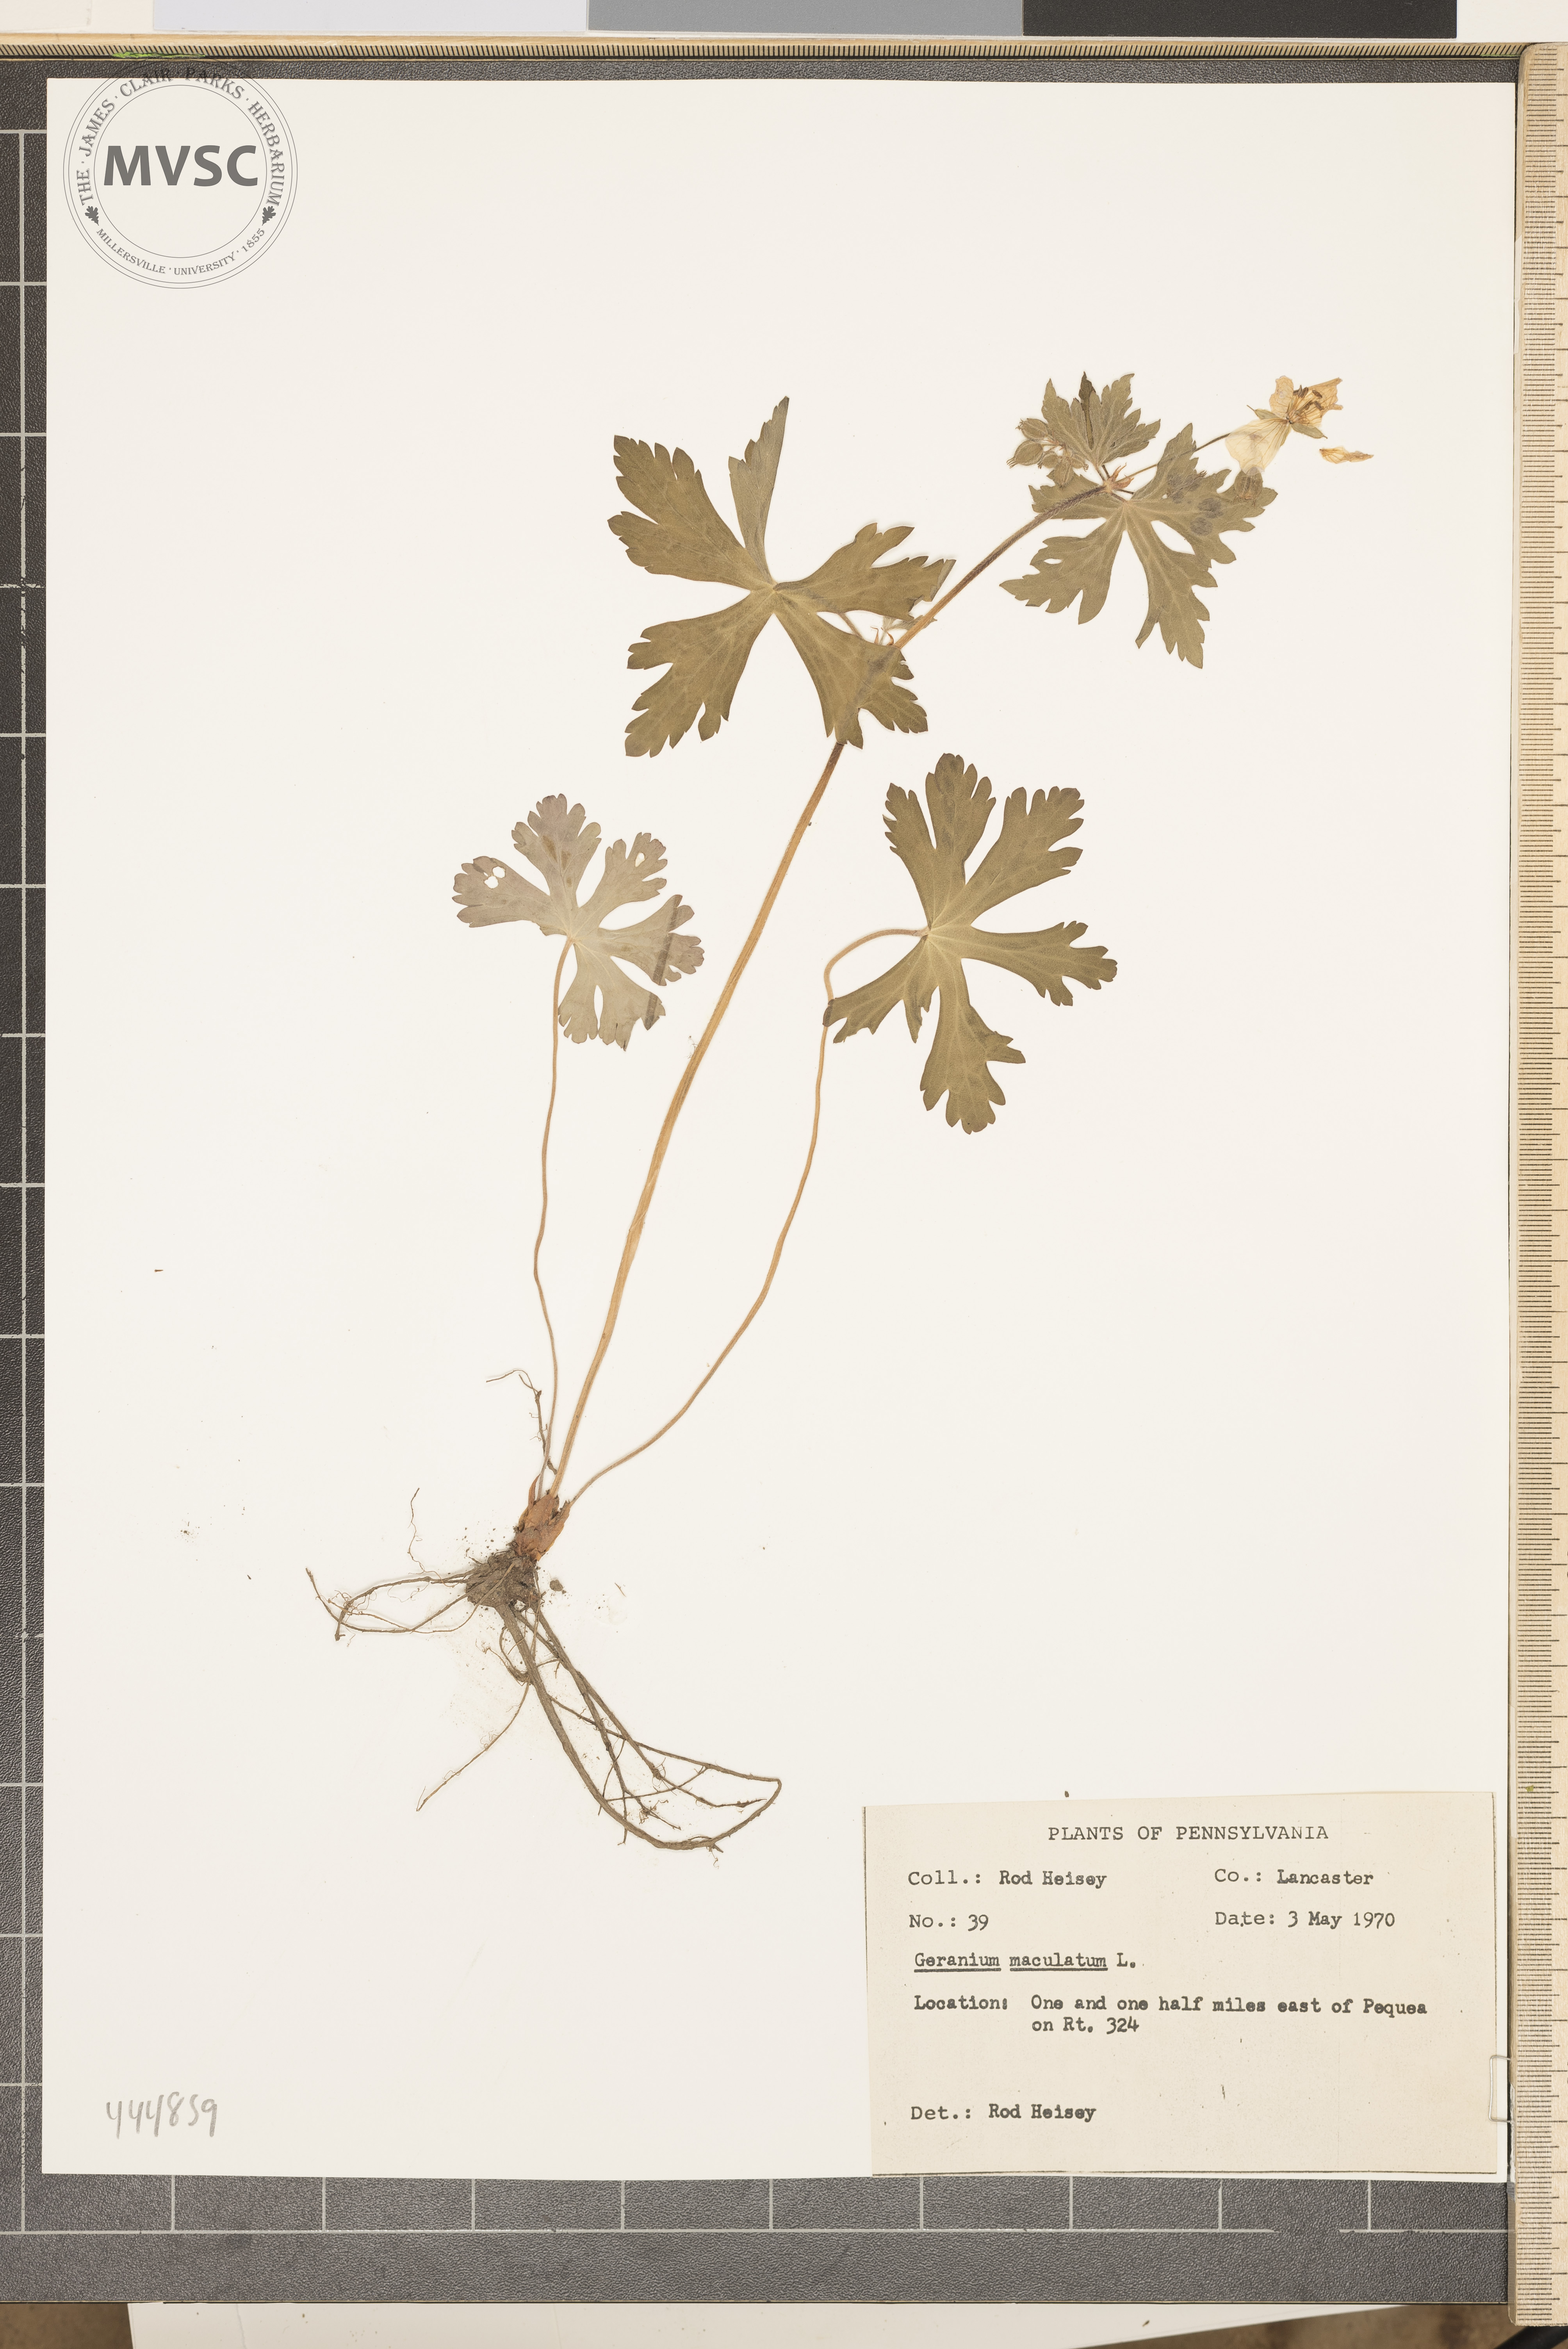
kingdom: Plantae
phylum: Tracheophyta
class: Magnoliopsida
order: Geraniales
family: Geraniaceae
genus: Geranium
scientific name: Geranium maculatum
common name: Spotted geranium
